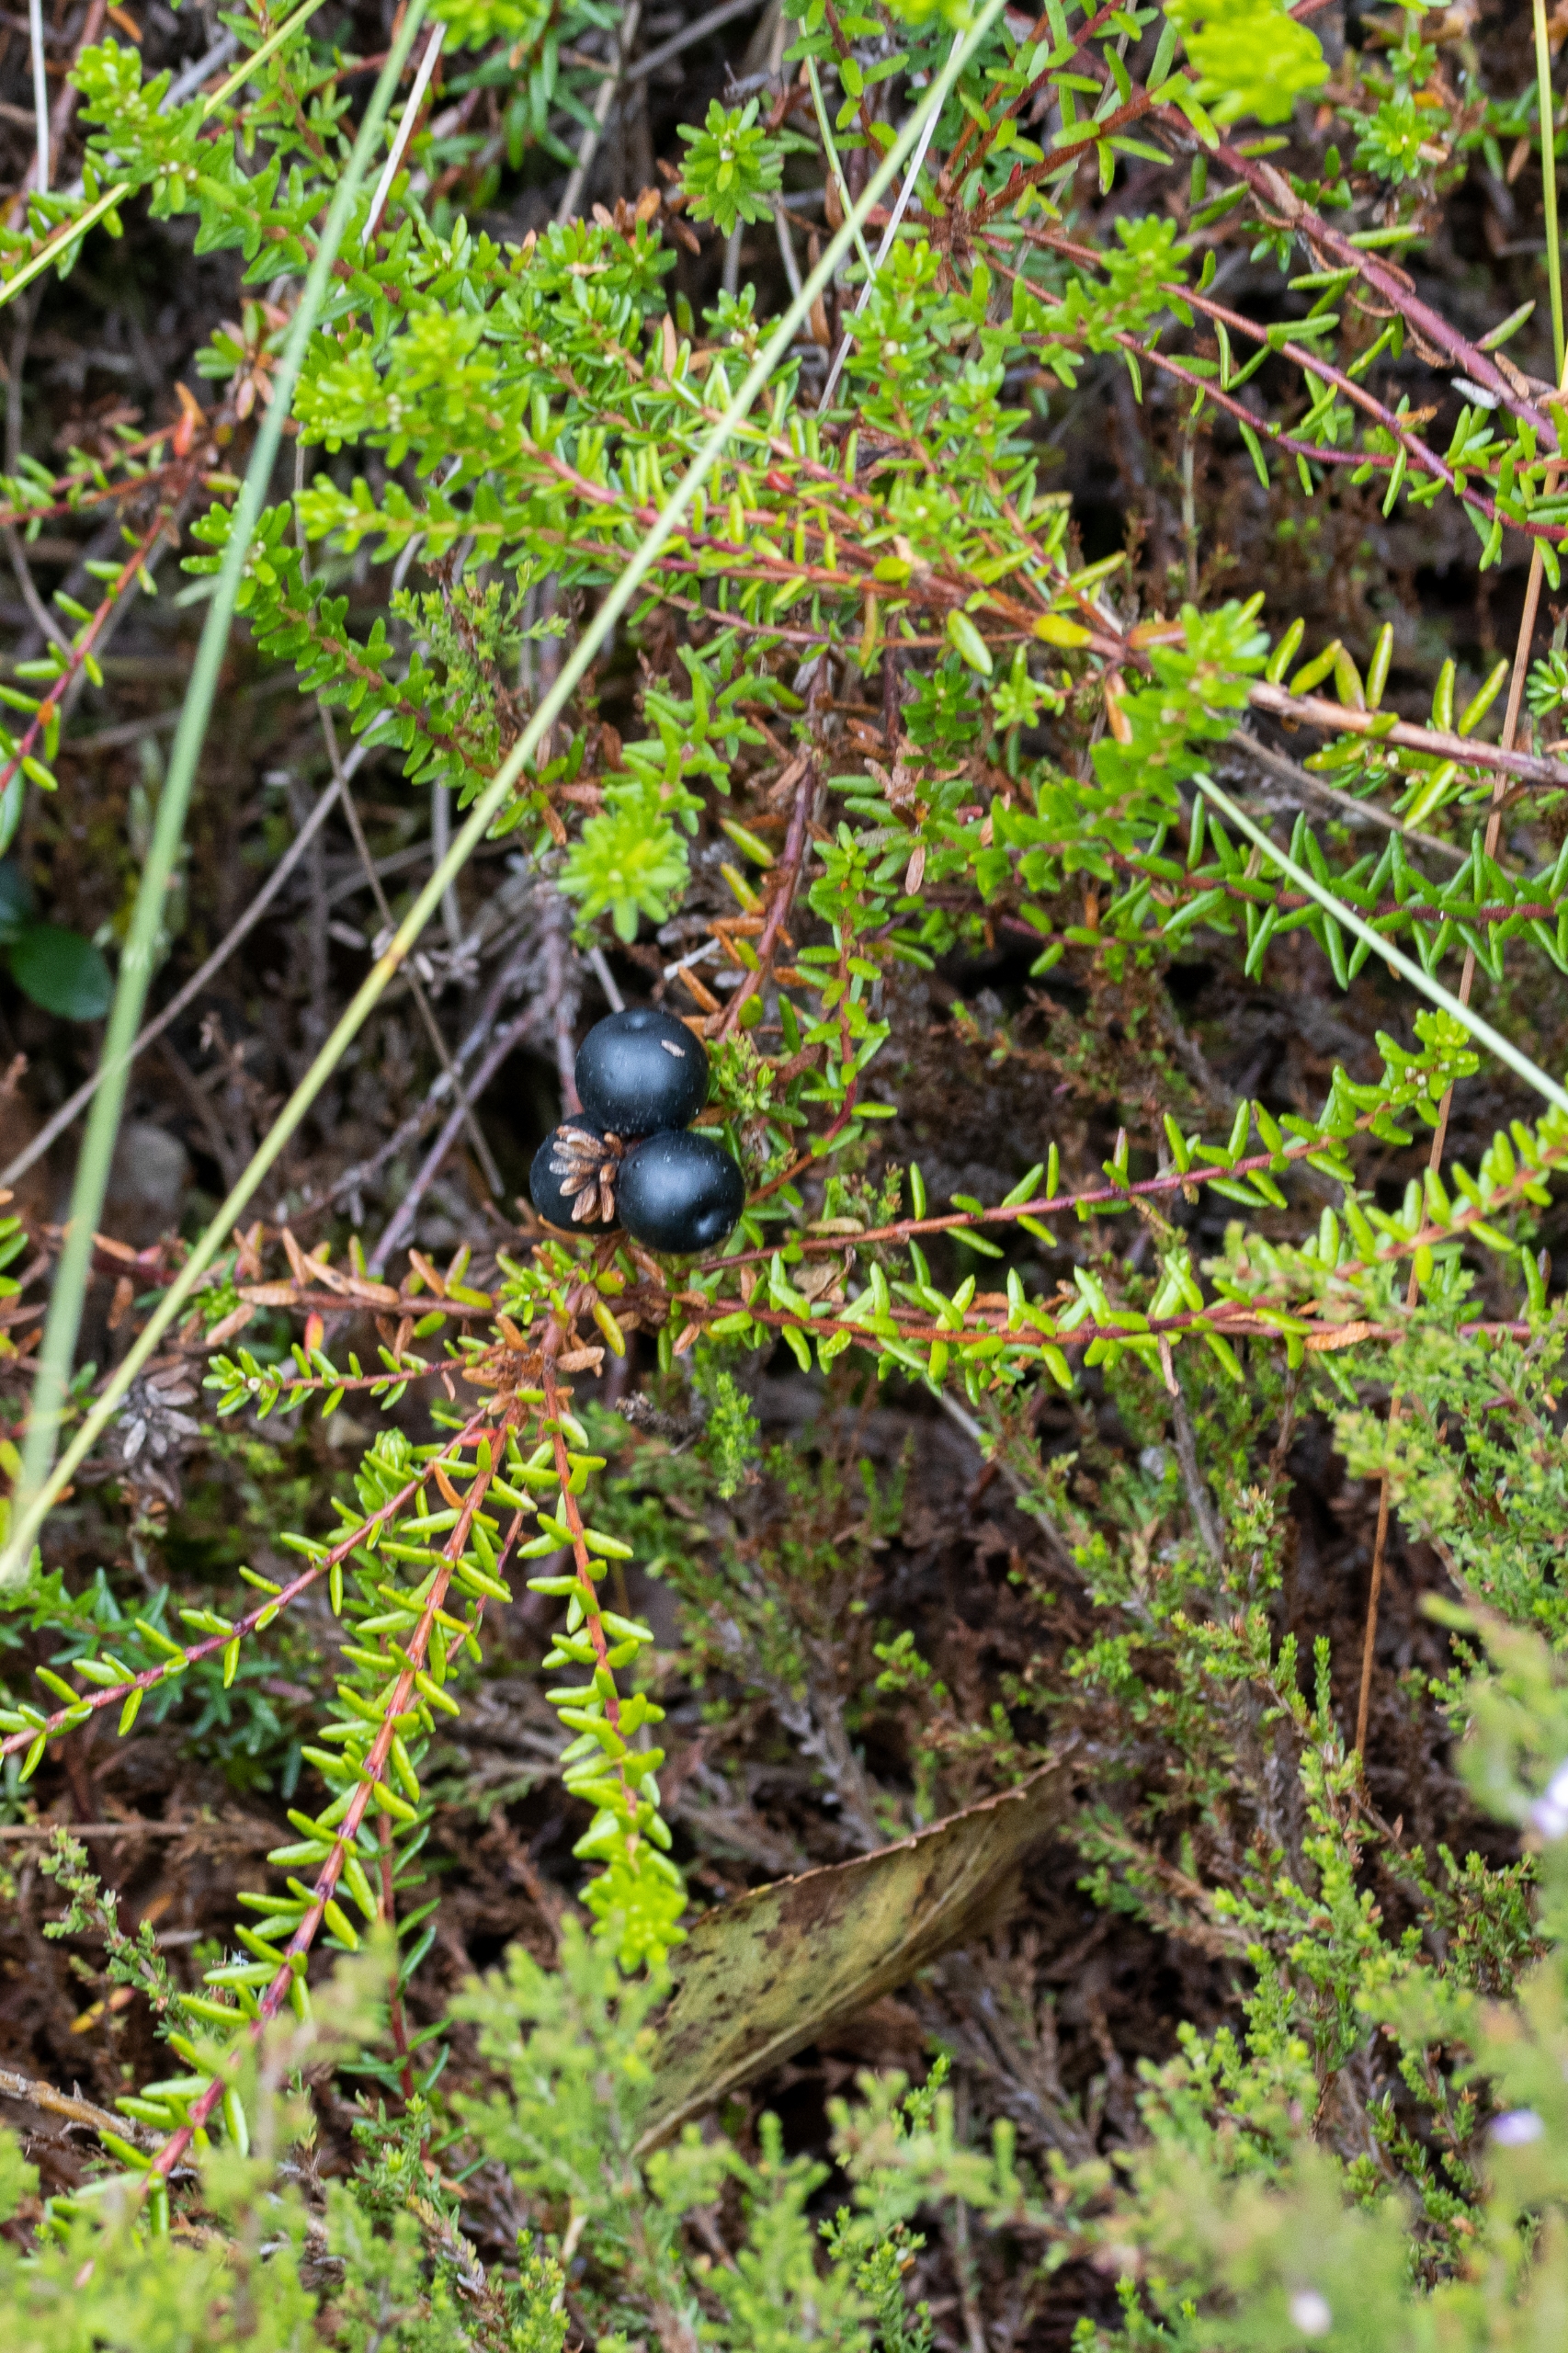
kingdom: Plantae
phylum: Tracheophyta
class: Magnoliopsida
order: Ericales
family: Ericaceae
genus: Empetrum
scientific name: Empetrum nigrum
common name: Revling
